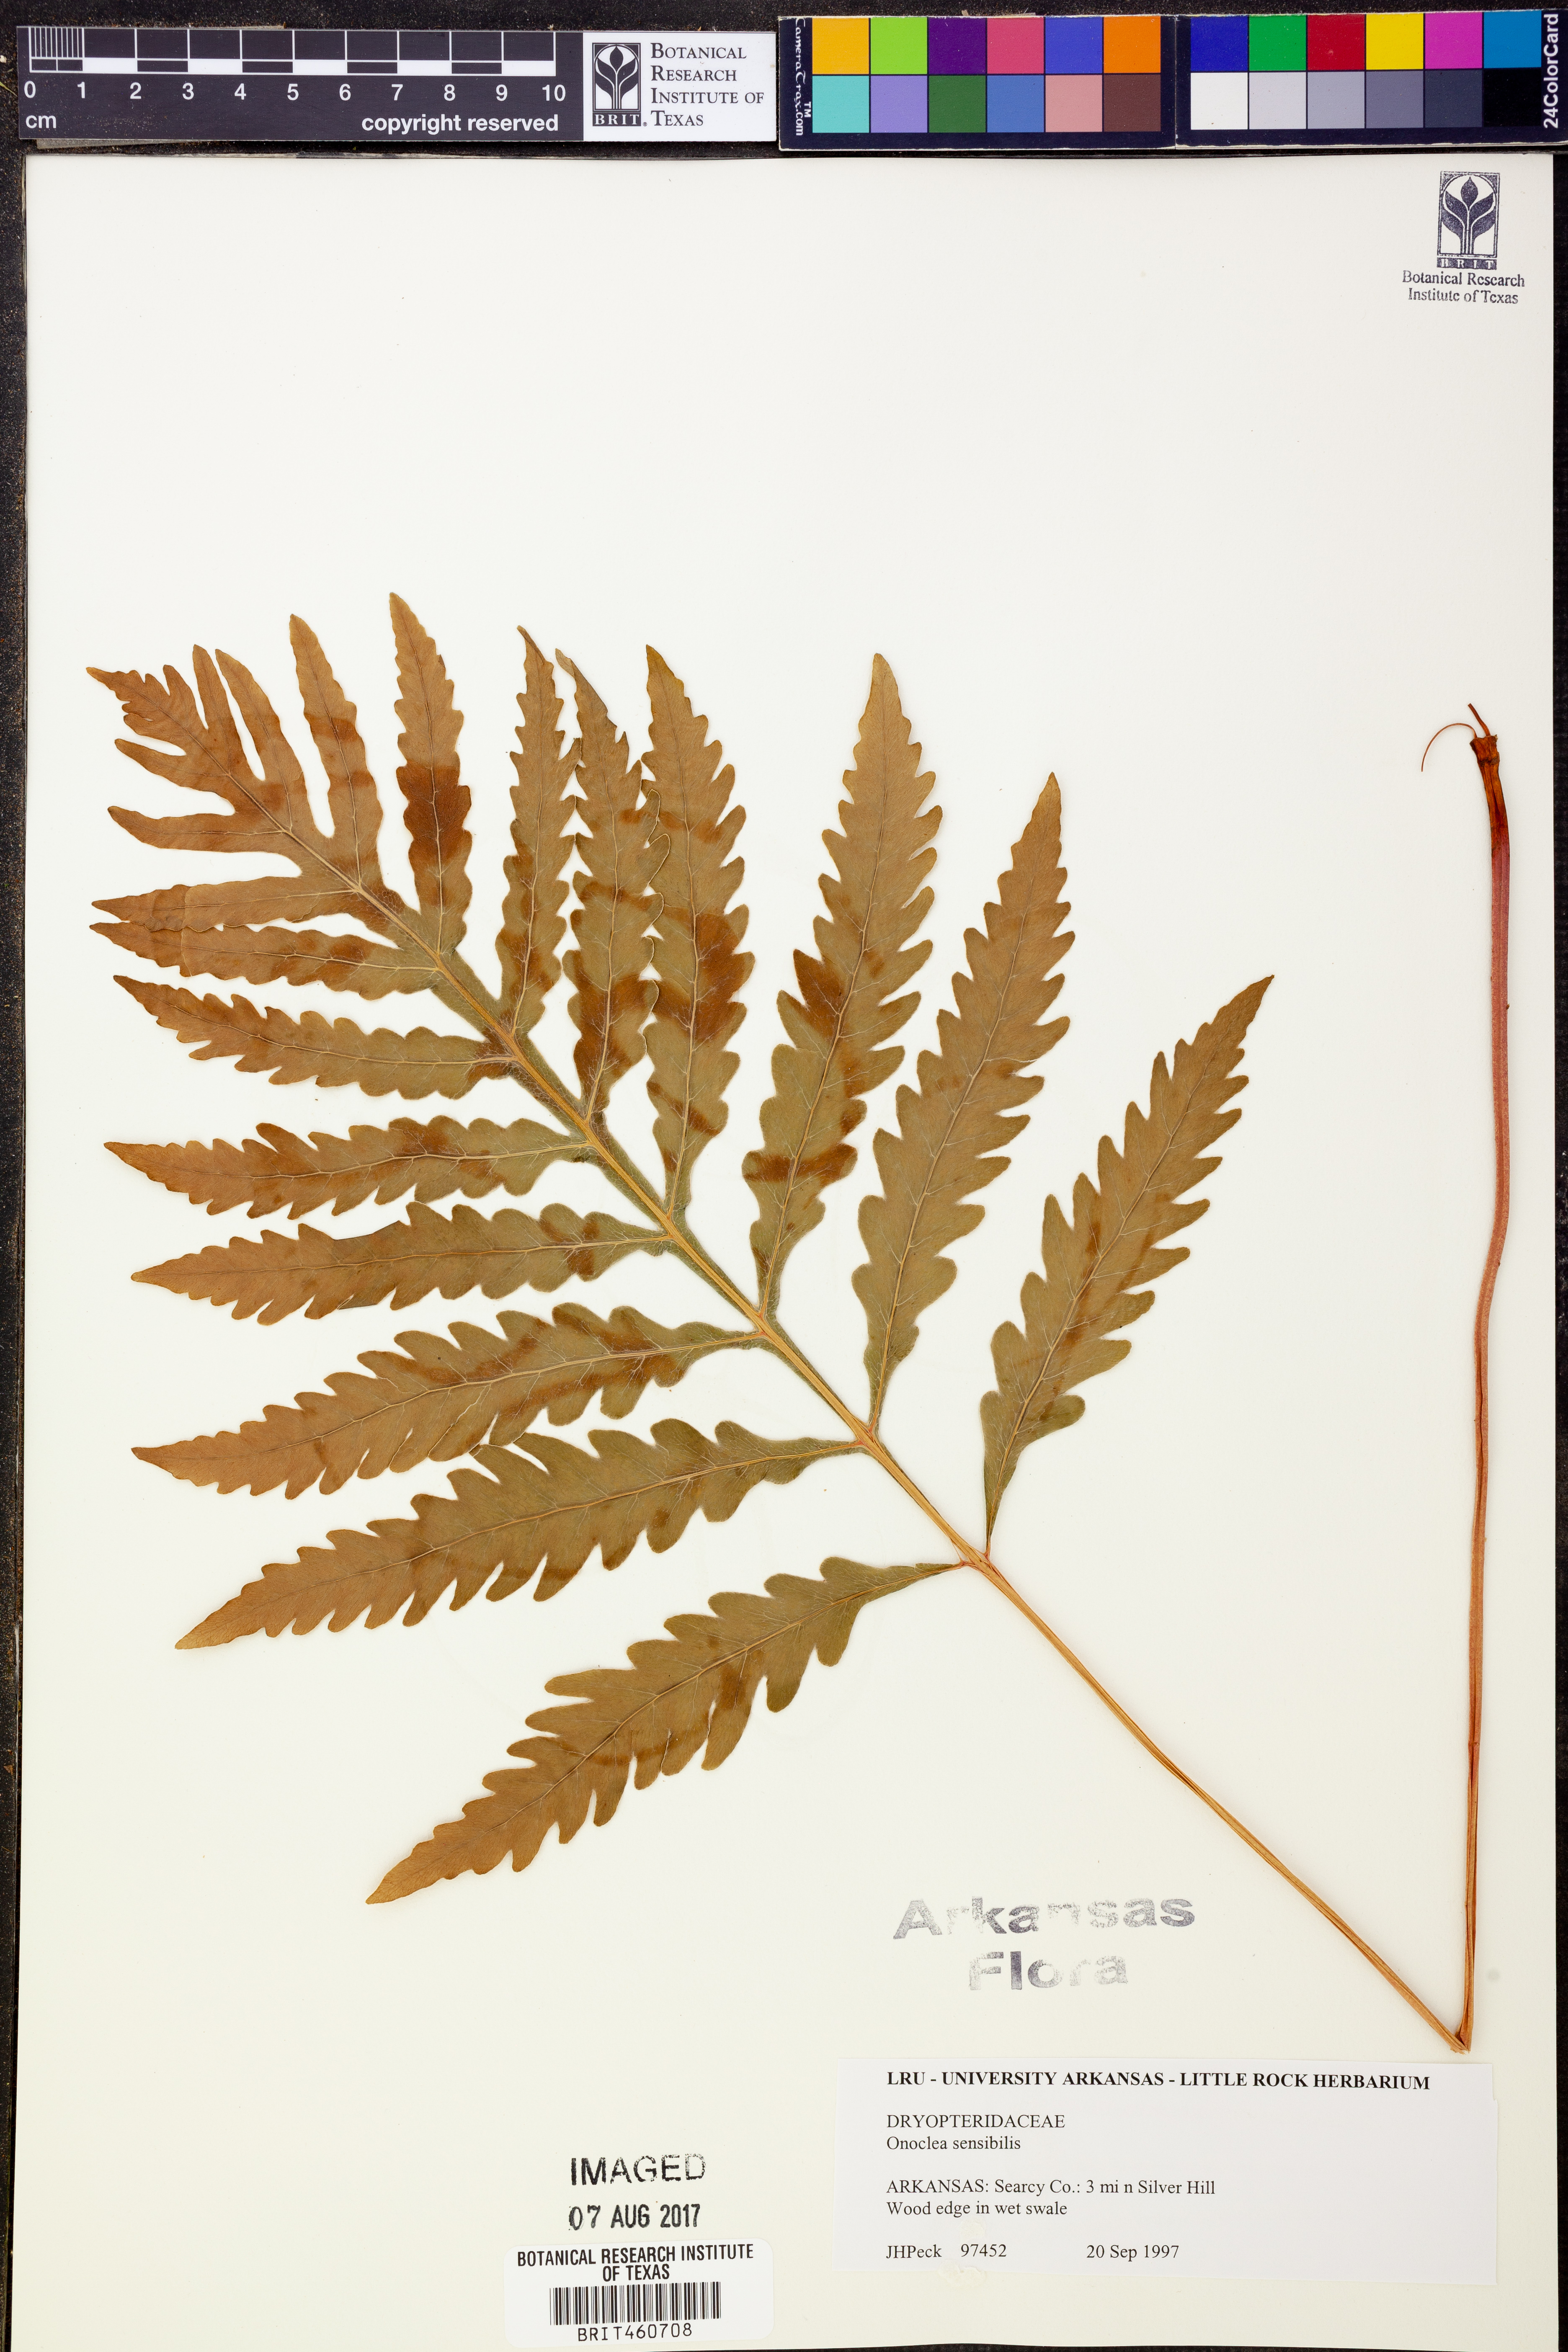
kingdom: Plantae
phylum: Tracheophyta
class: Polypodiopsida
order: Polypodiales
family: Onocleaceae
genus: Onoclea
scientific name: Onoclea sensibilis
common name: Sensitive fern
